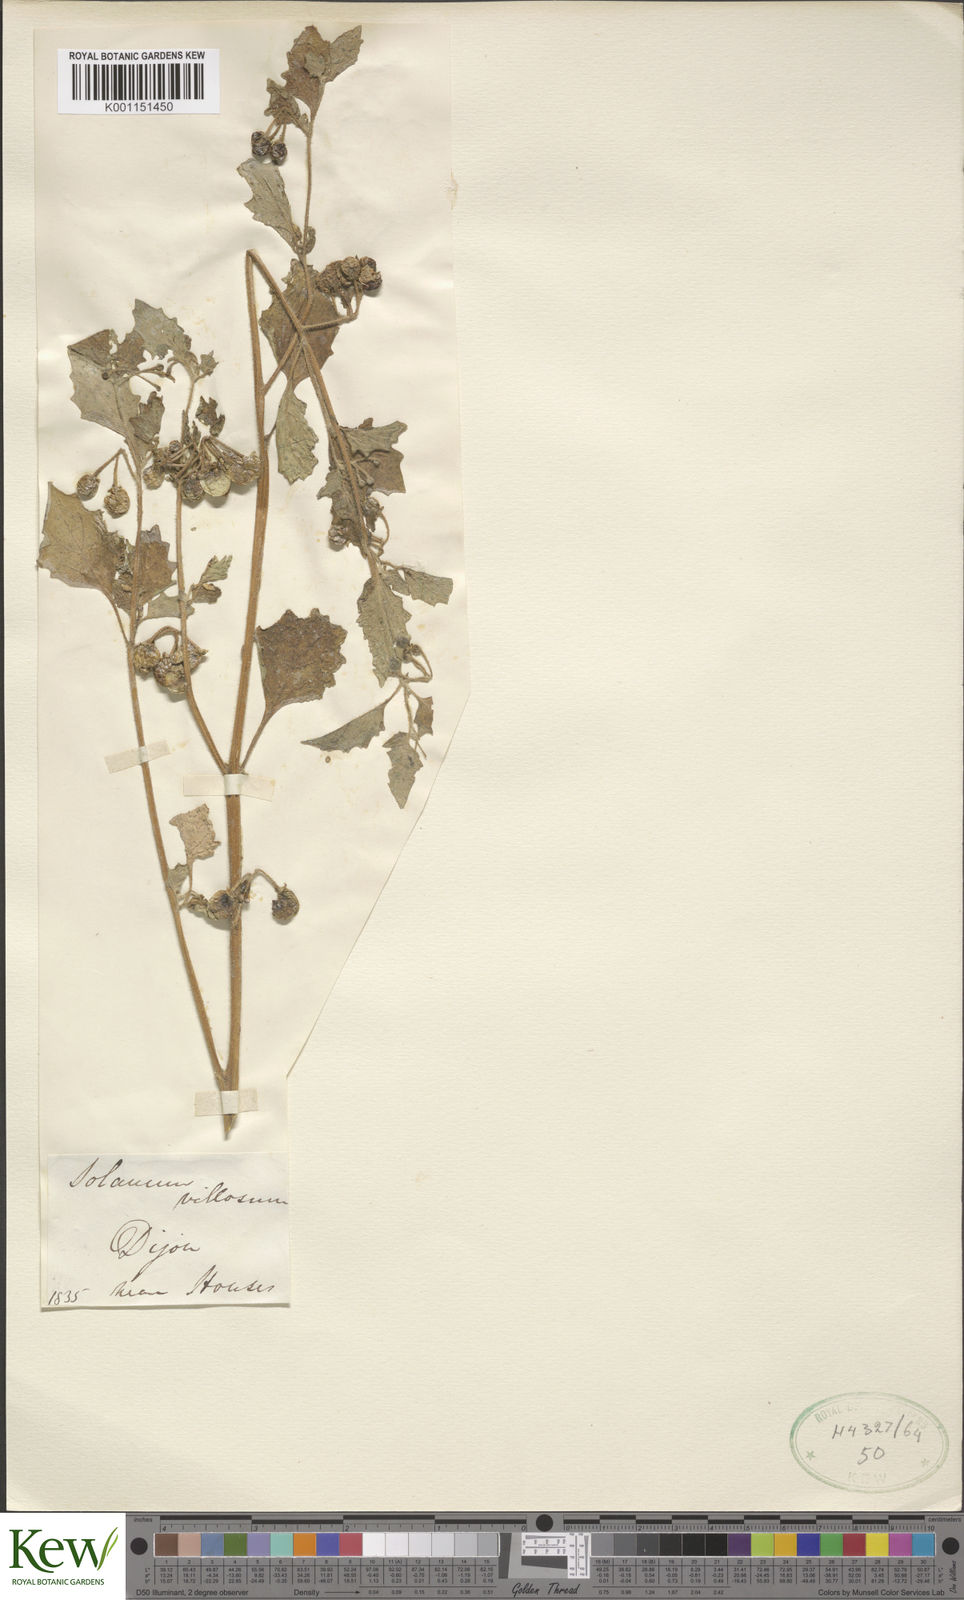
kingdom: Plantae
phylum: Tracheophyta
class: Magnoliopsida
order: Solanales
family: Solanaceae
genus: Solanum
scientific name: Solanum villosum
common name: Red nightshade
